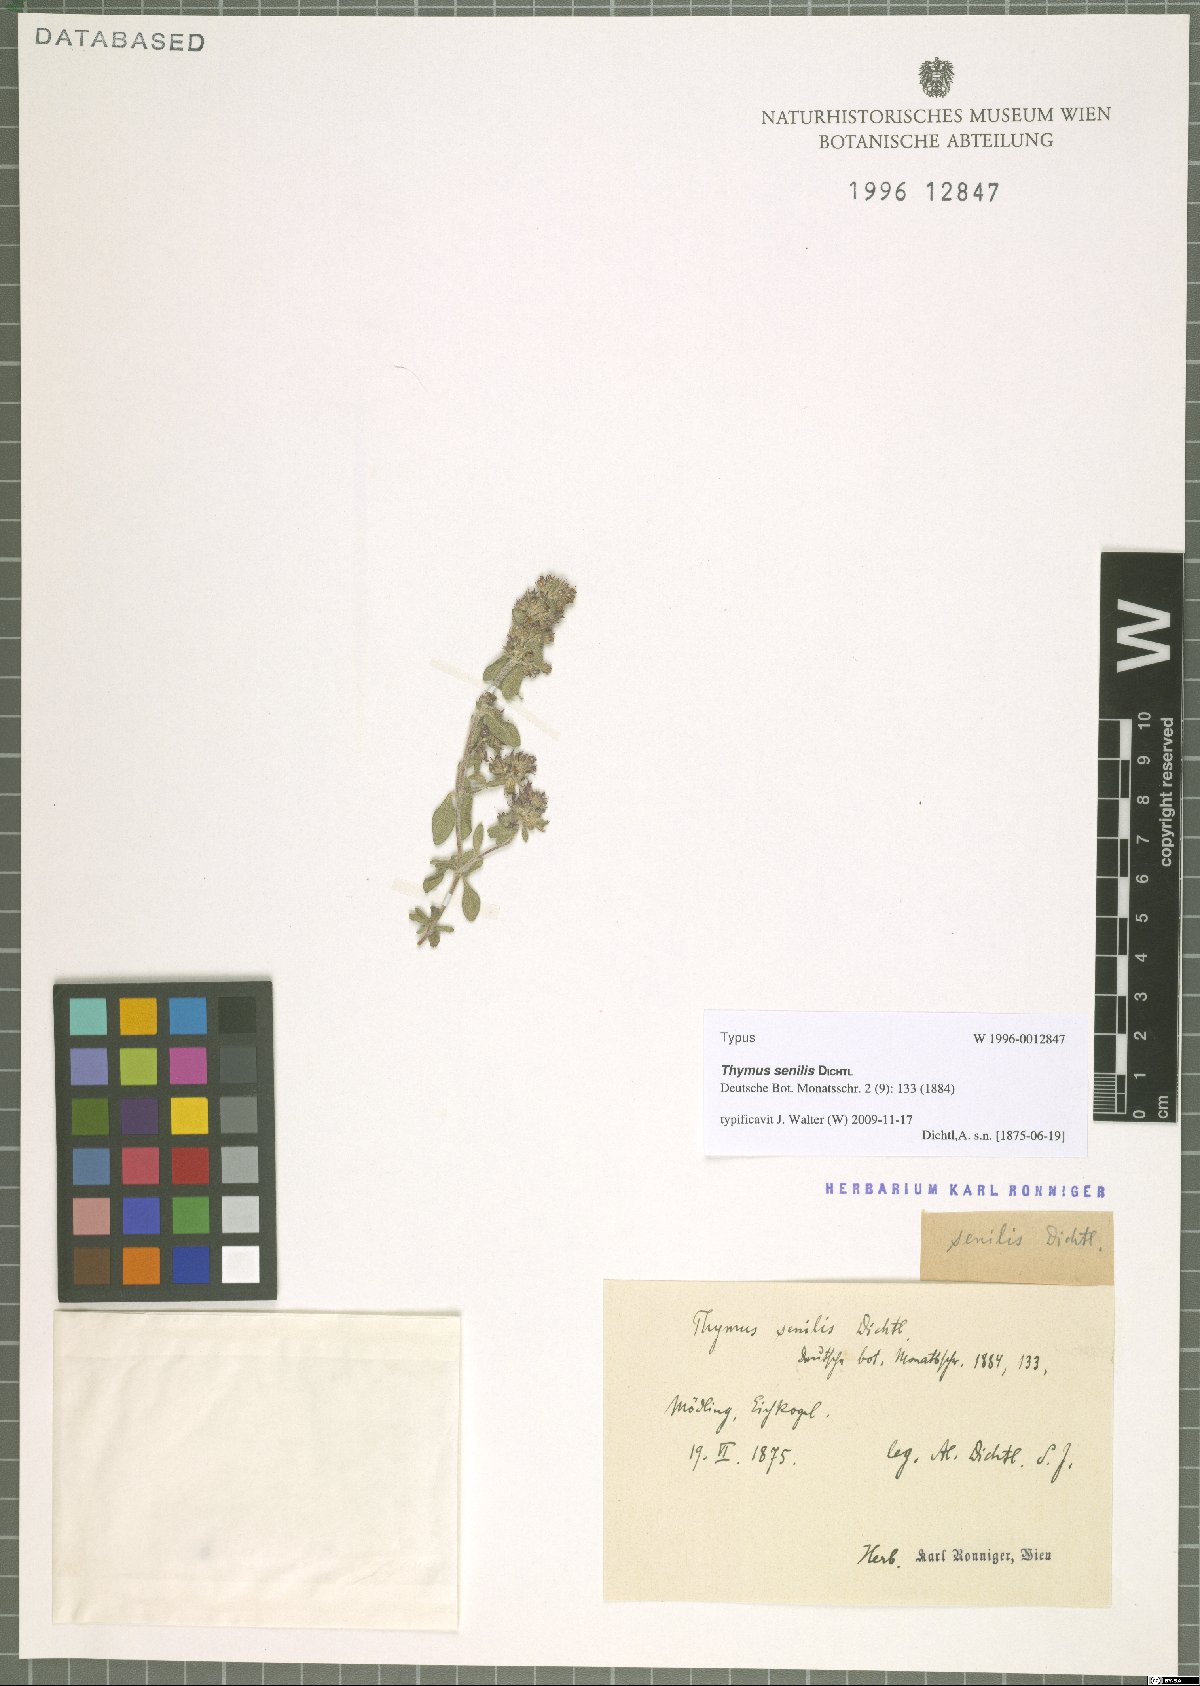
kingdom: Plantae
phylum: Tracheophyta
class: Magnoliopsida
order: Lamiales
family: Lamiaceae
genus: Thymus
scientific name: Thymus odoratissimus
